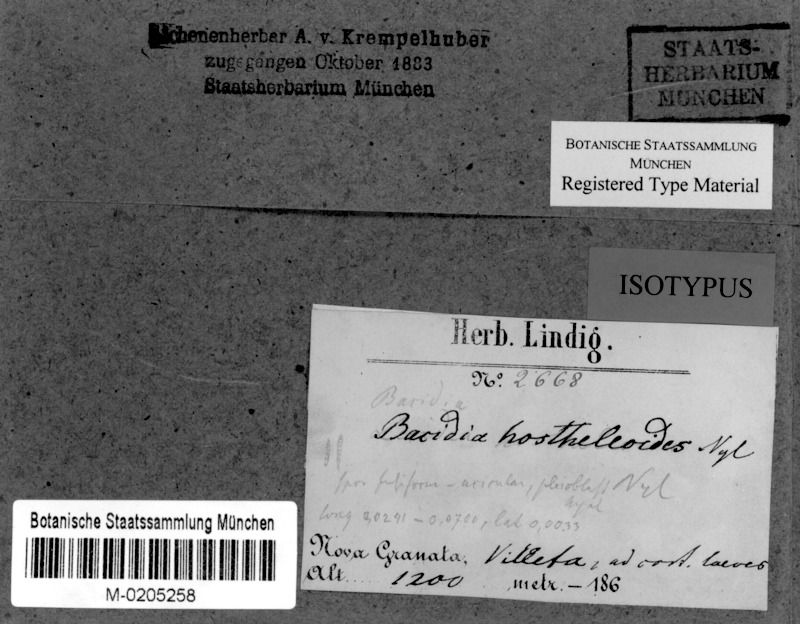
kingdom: Fungi
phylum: Ascomycota
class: Lecanoromycetes
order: Lecanorales
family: Ramalinaceae
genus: Bacidia
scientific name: Bacidia hostheleoides
